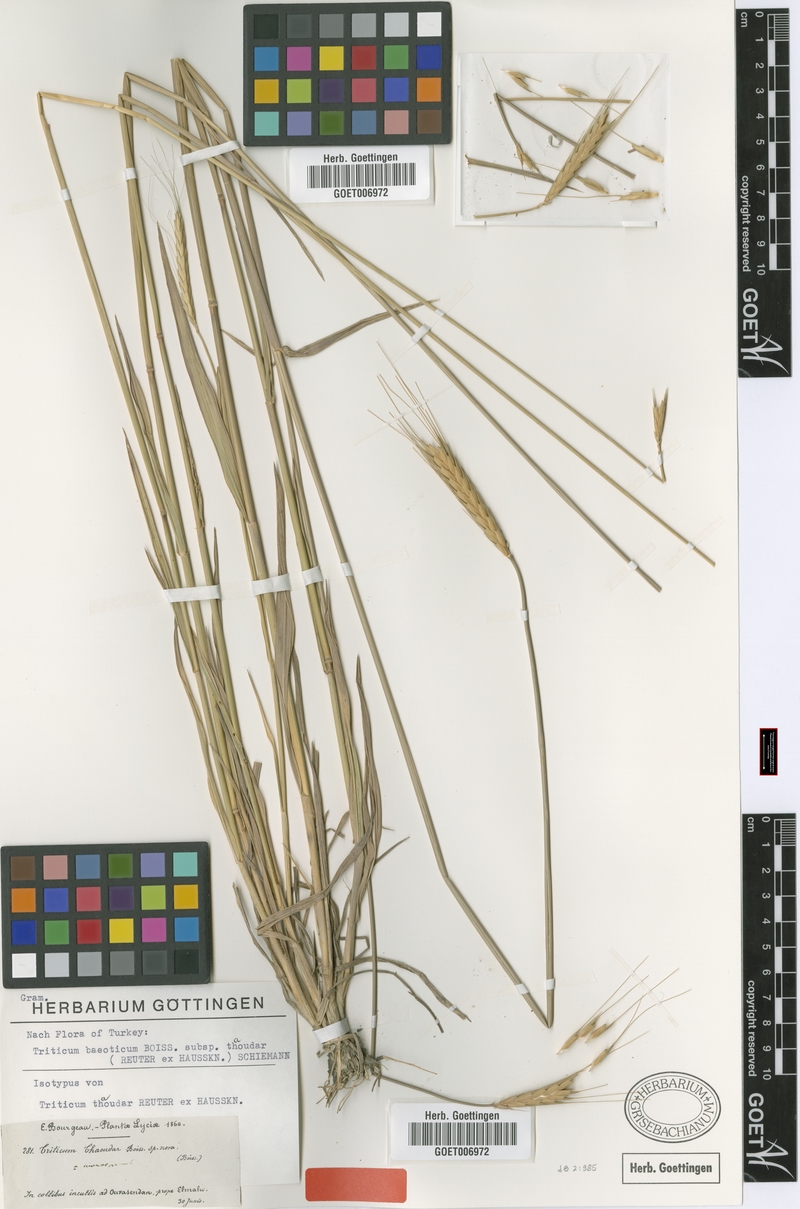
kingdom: Plantae
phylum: Tracheophyta
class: Liliopsida
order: Poales
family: Poaceae
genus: Triticum
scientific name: Triticum monococcum
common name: Einkorn
